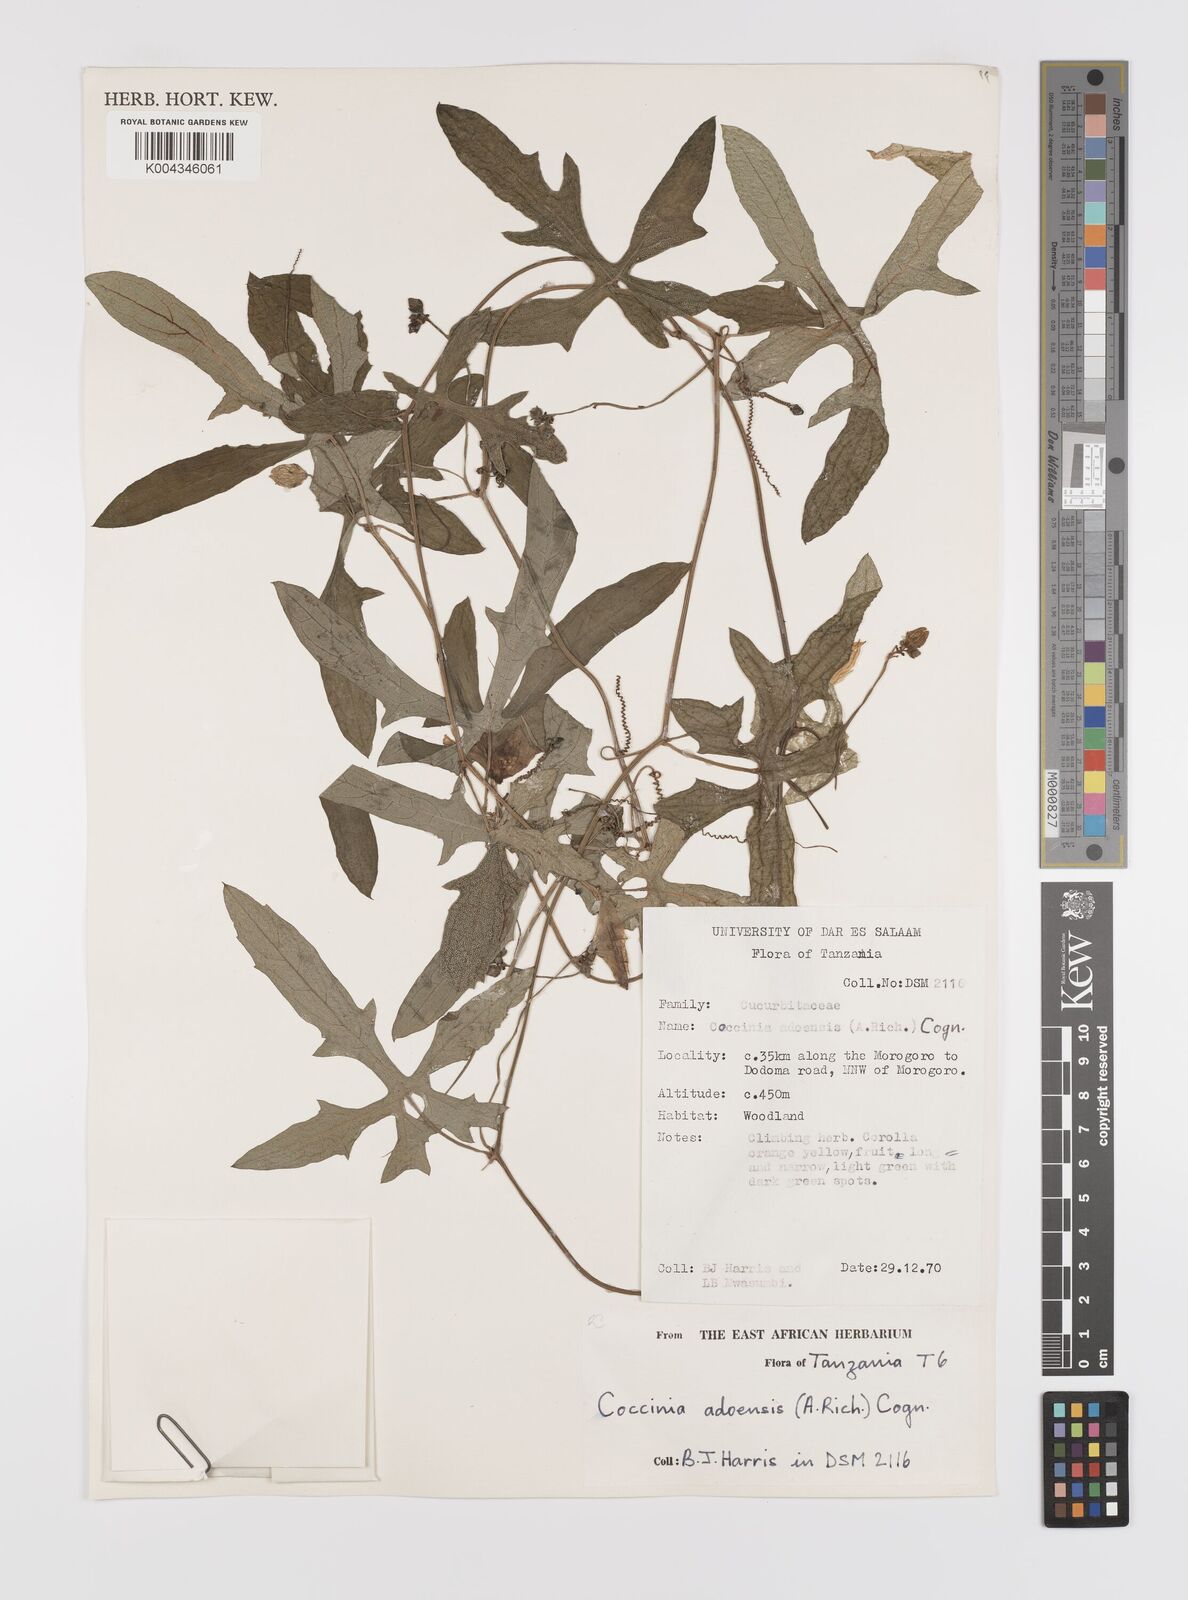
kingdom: Plantae
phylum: Tracheophyta
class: Magnoliopsida
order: Cucurbitales
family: Cucurbitaceae
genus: Coccinia
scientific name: Coccinia adoensis
